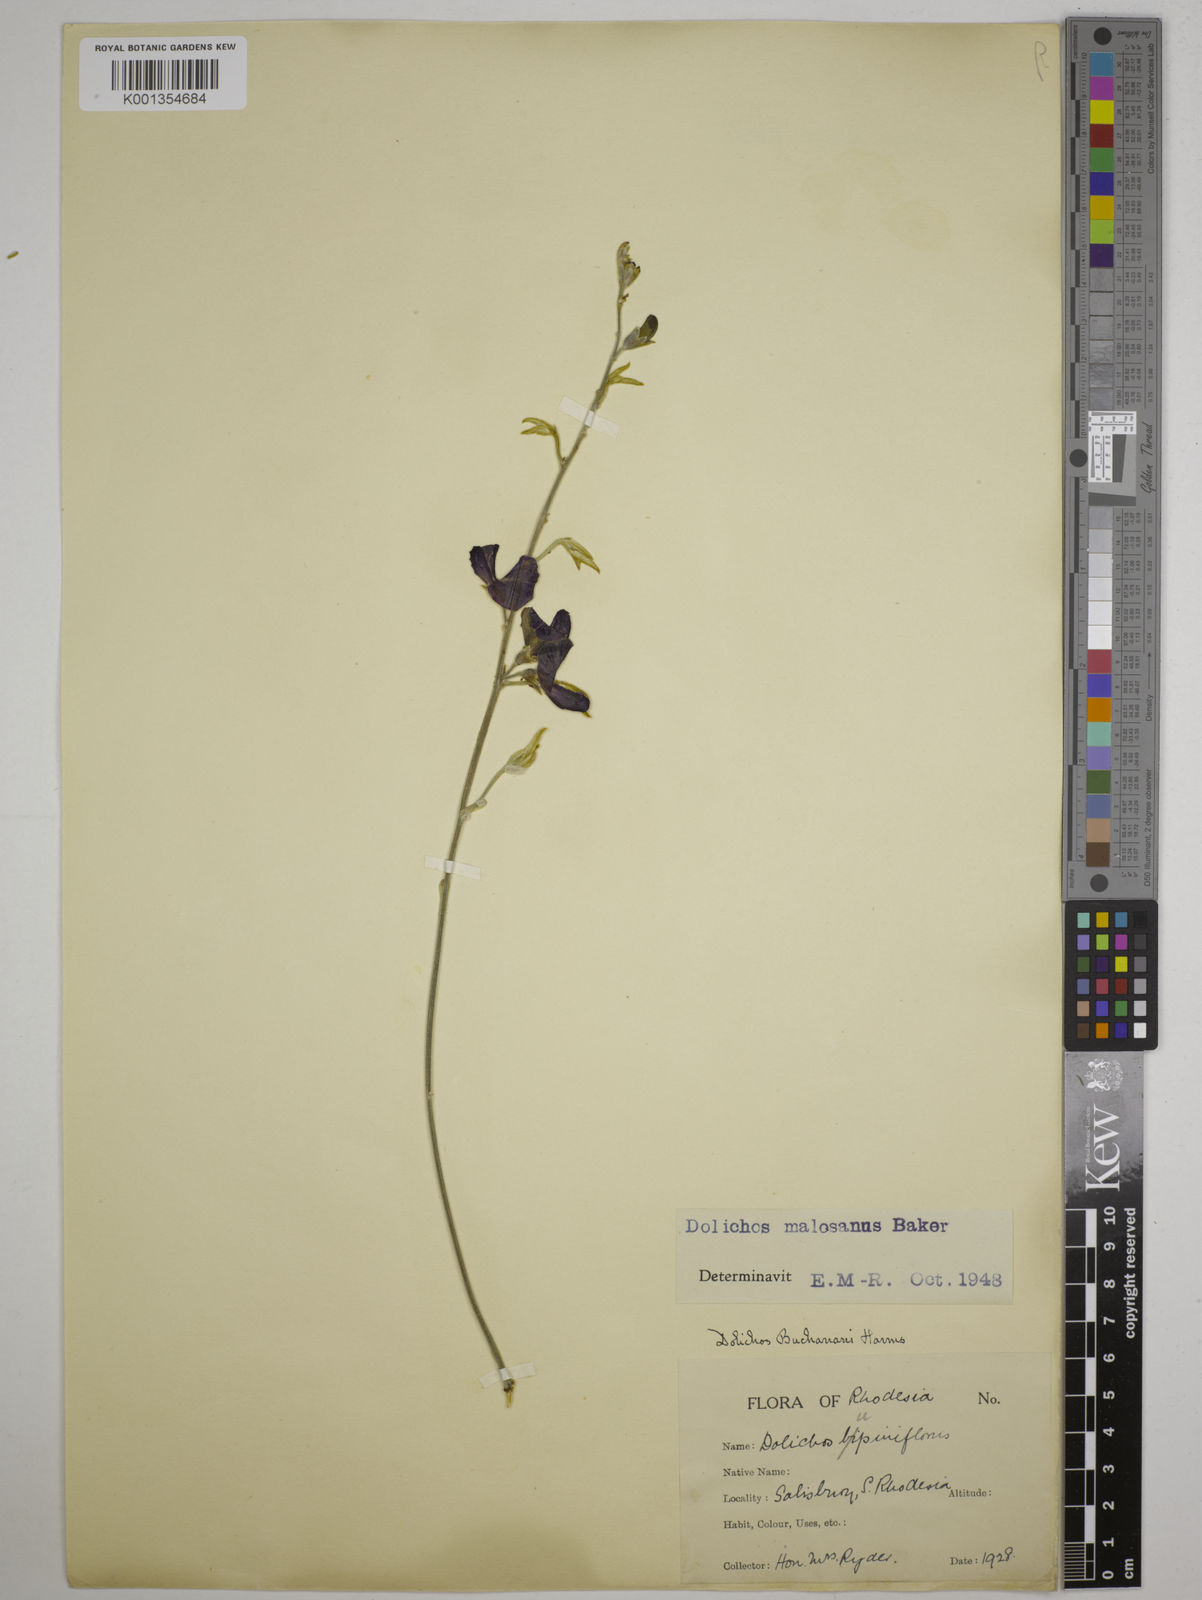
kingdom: Plantae
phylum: Tracheophyta
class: Magnoliopsida
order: Fabales
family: Fabaceae
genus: Dolichos
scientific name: Dolichos kilimandscharicus
